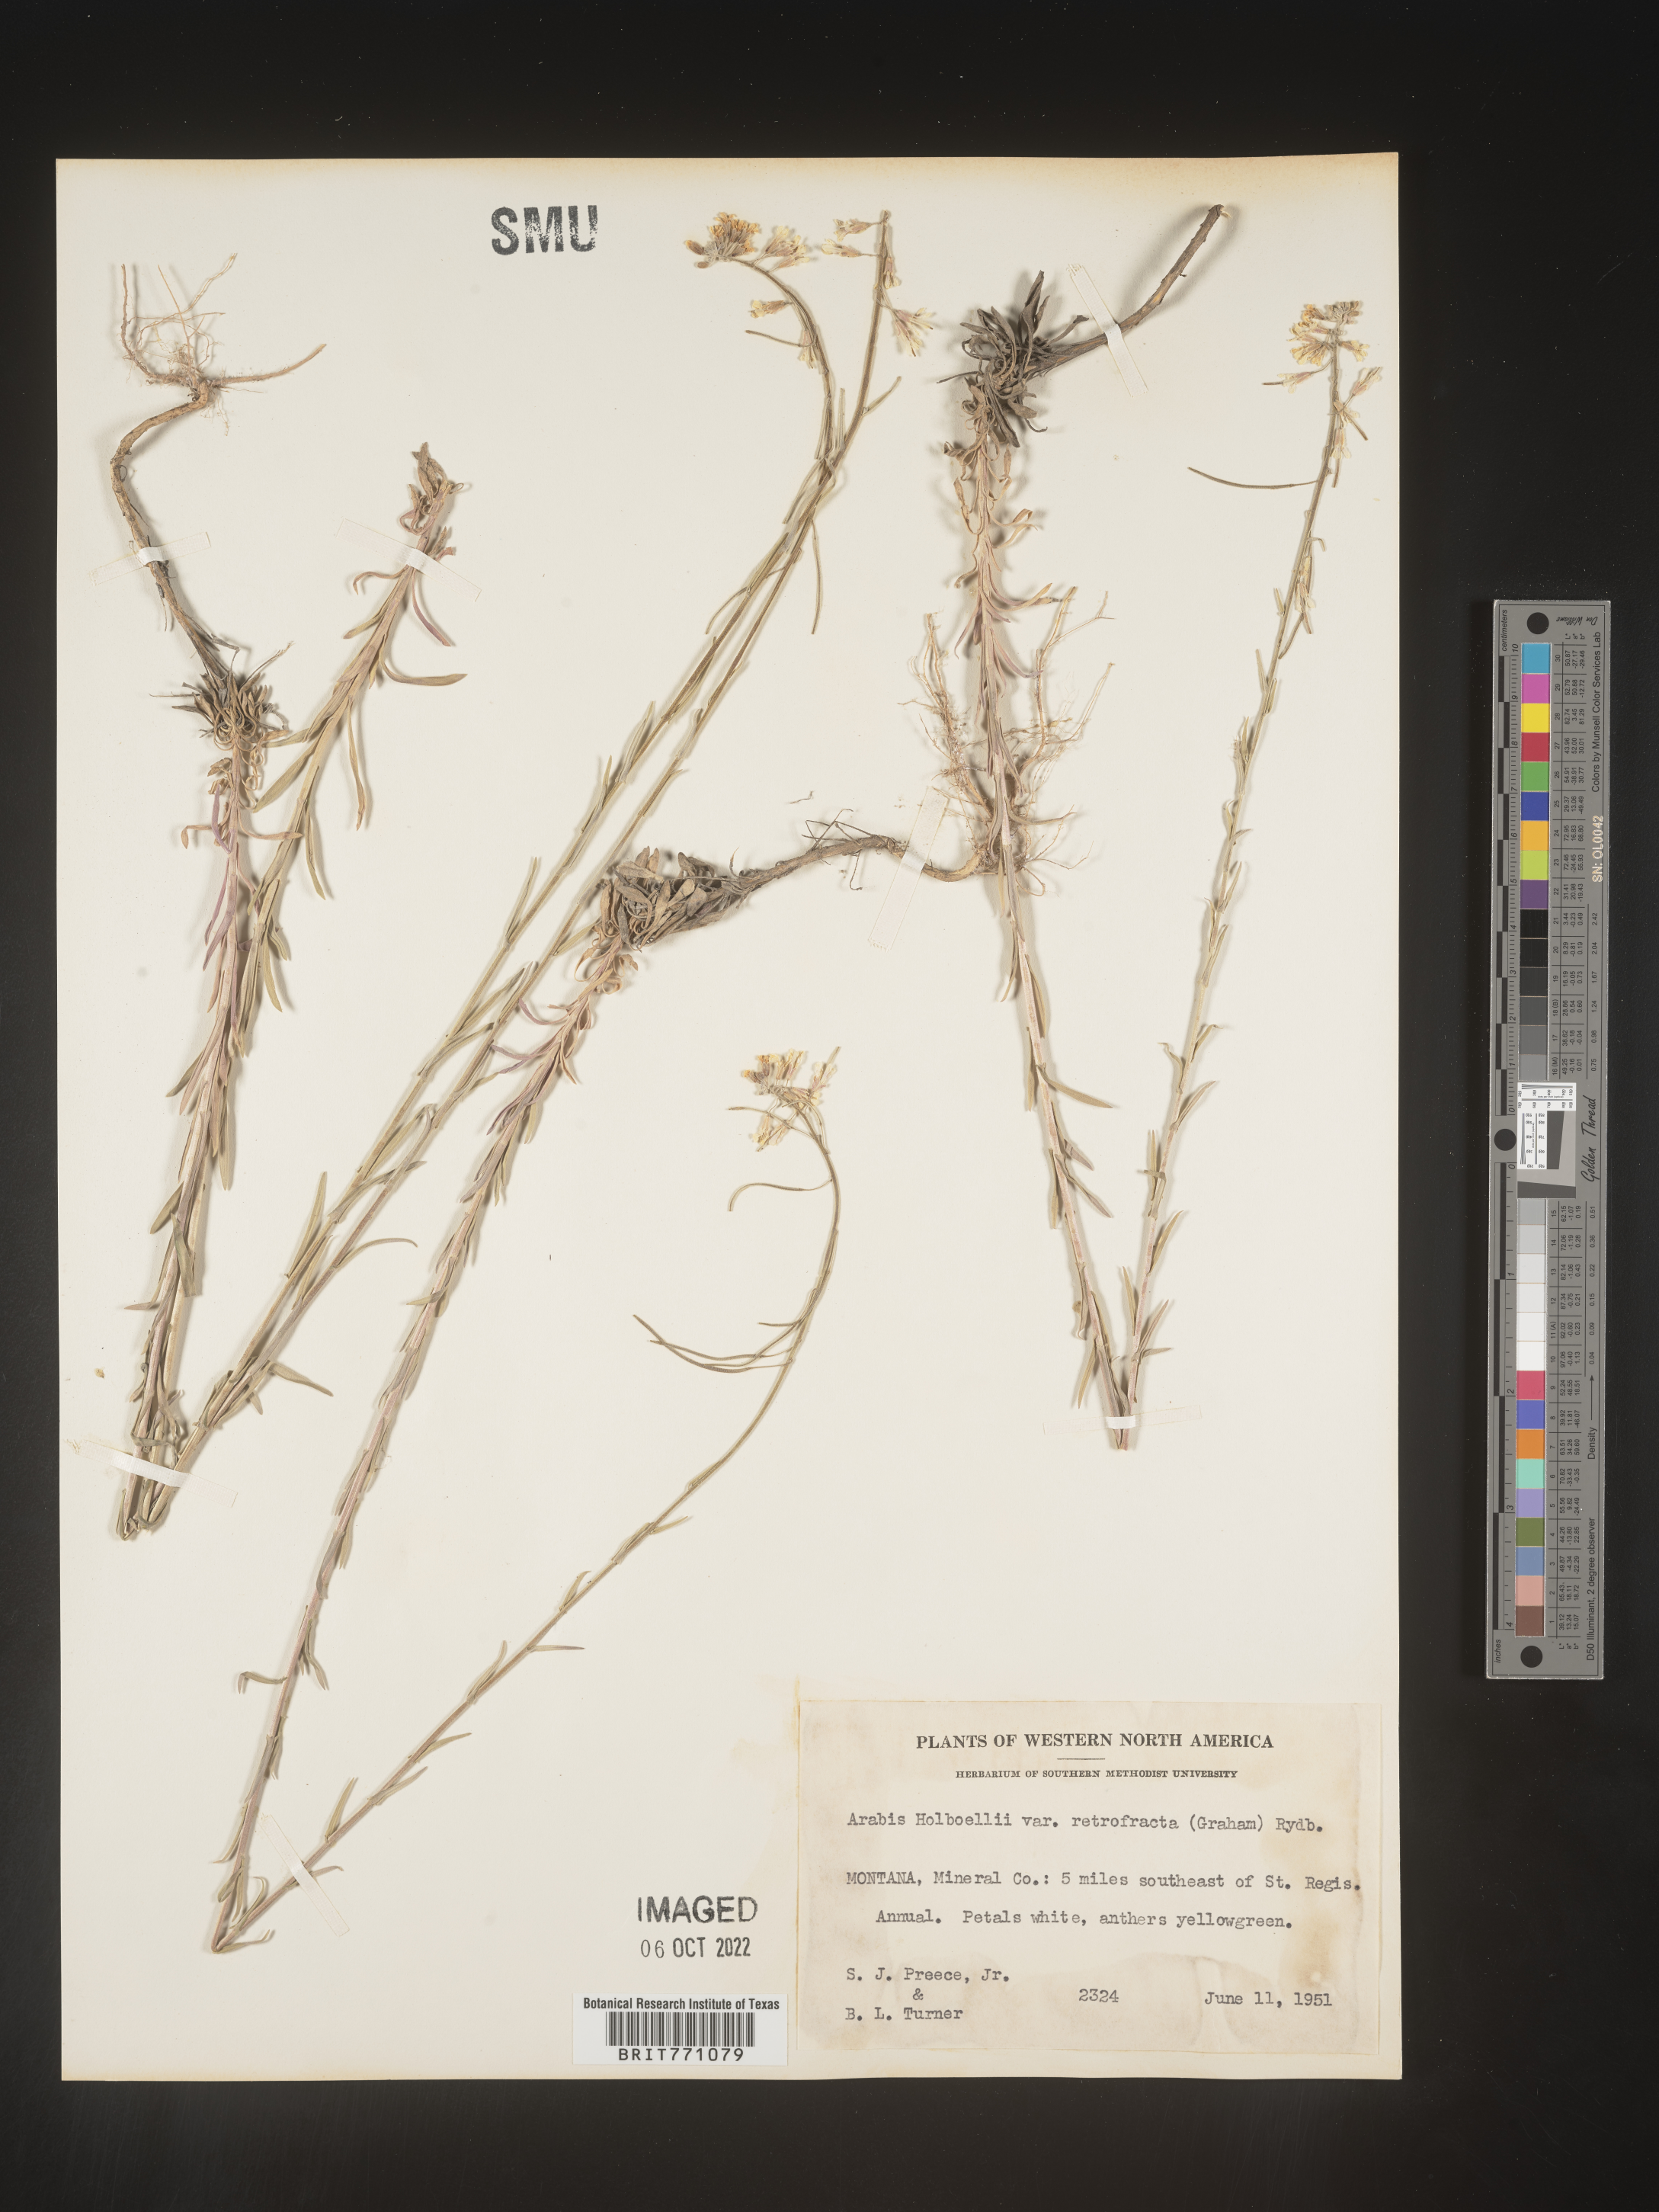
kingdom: Plantae
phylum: Tracheophyta
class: Magnoliopsida
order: Brassicales
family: Brassicaceae
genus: Boechera
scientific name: Boechera holboellii
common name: Holboell's rockcress
